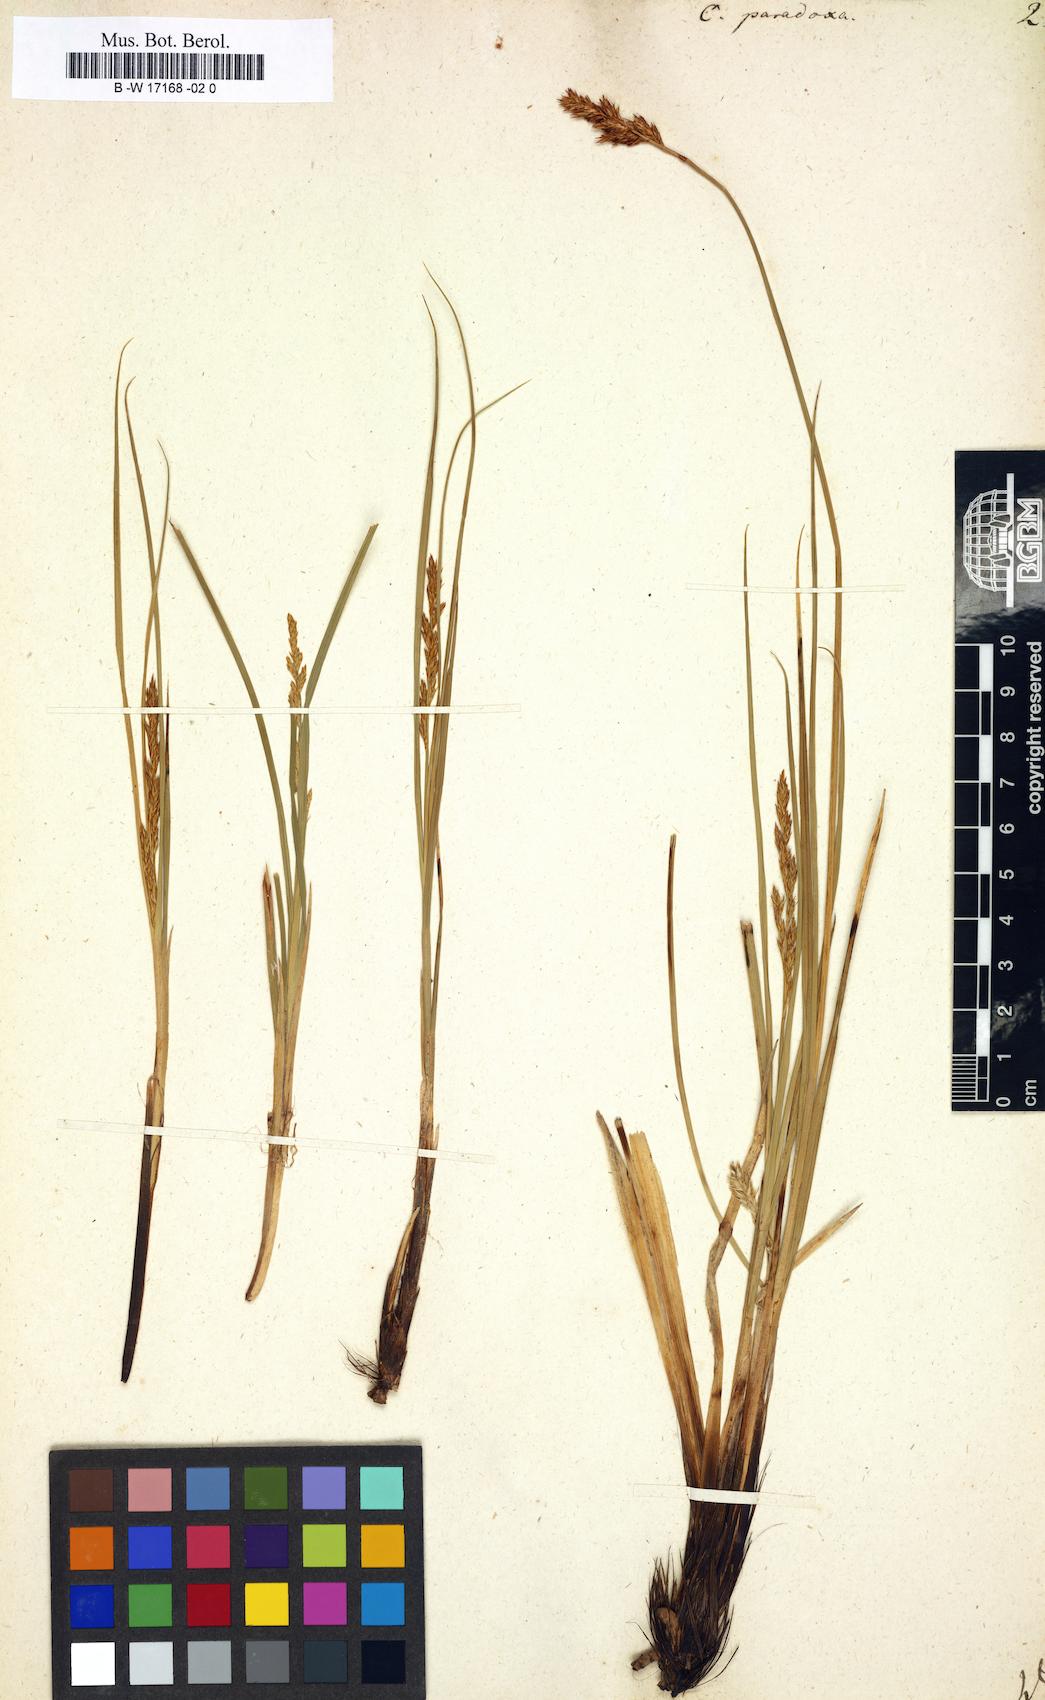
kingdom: Plantae
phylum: Tracheophyta
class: Liliopsida
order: Poales
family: Cyperaceae
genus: Carex
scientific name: Carex
